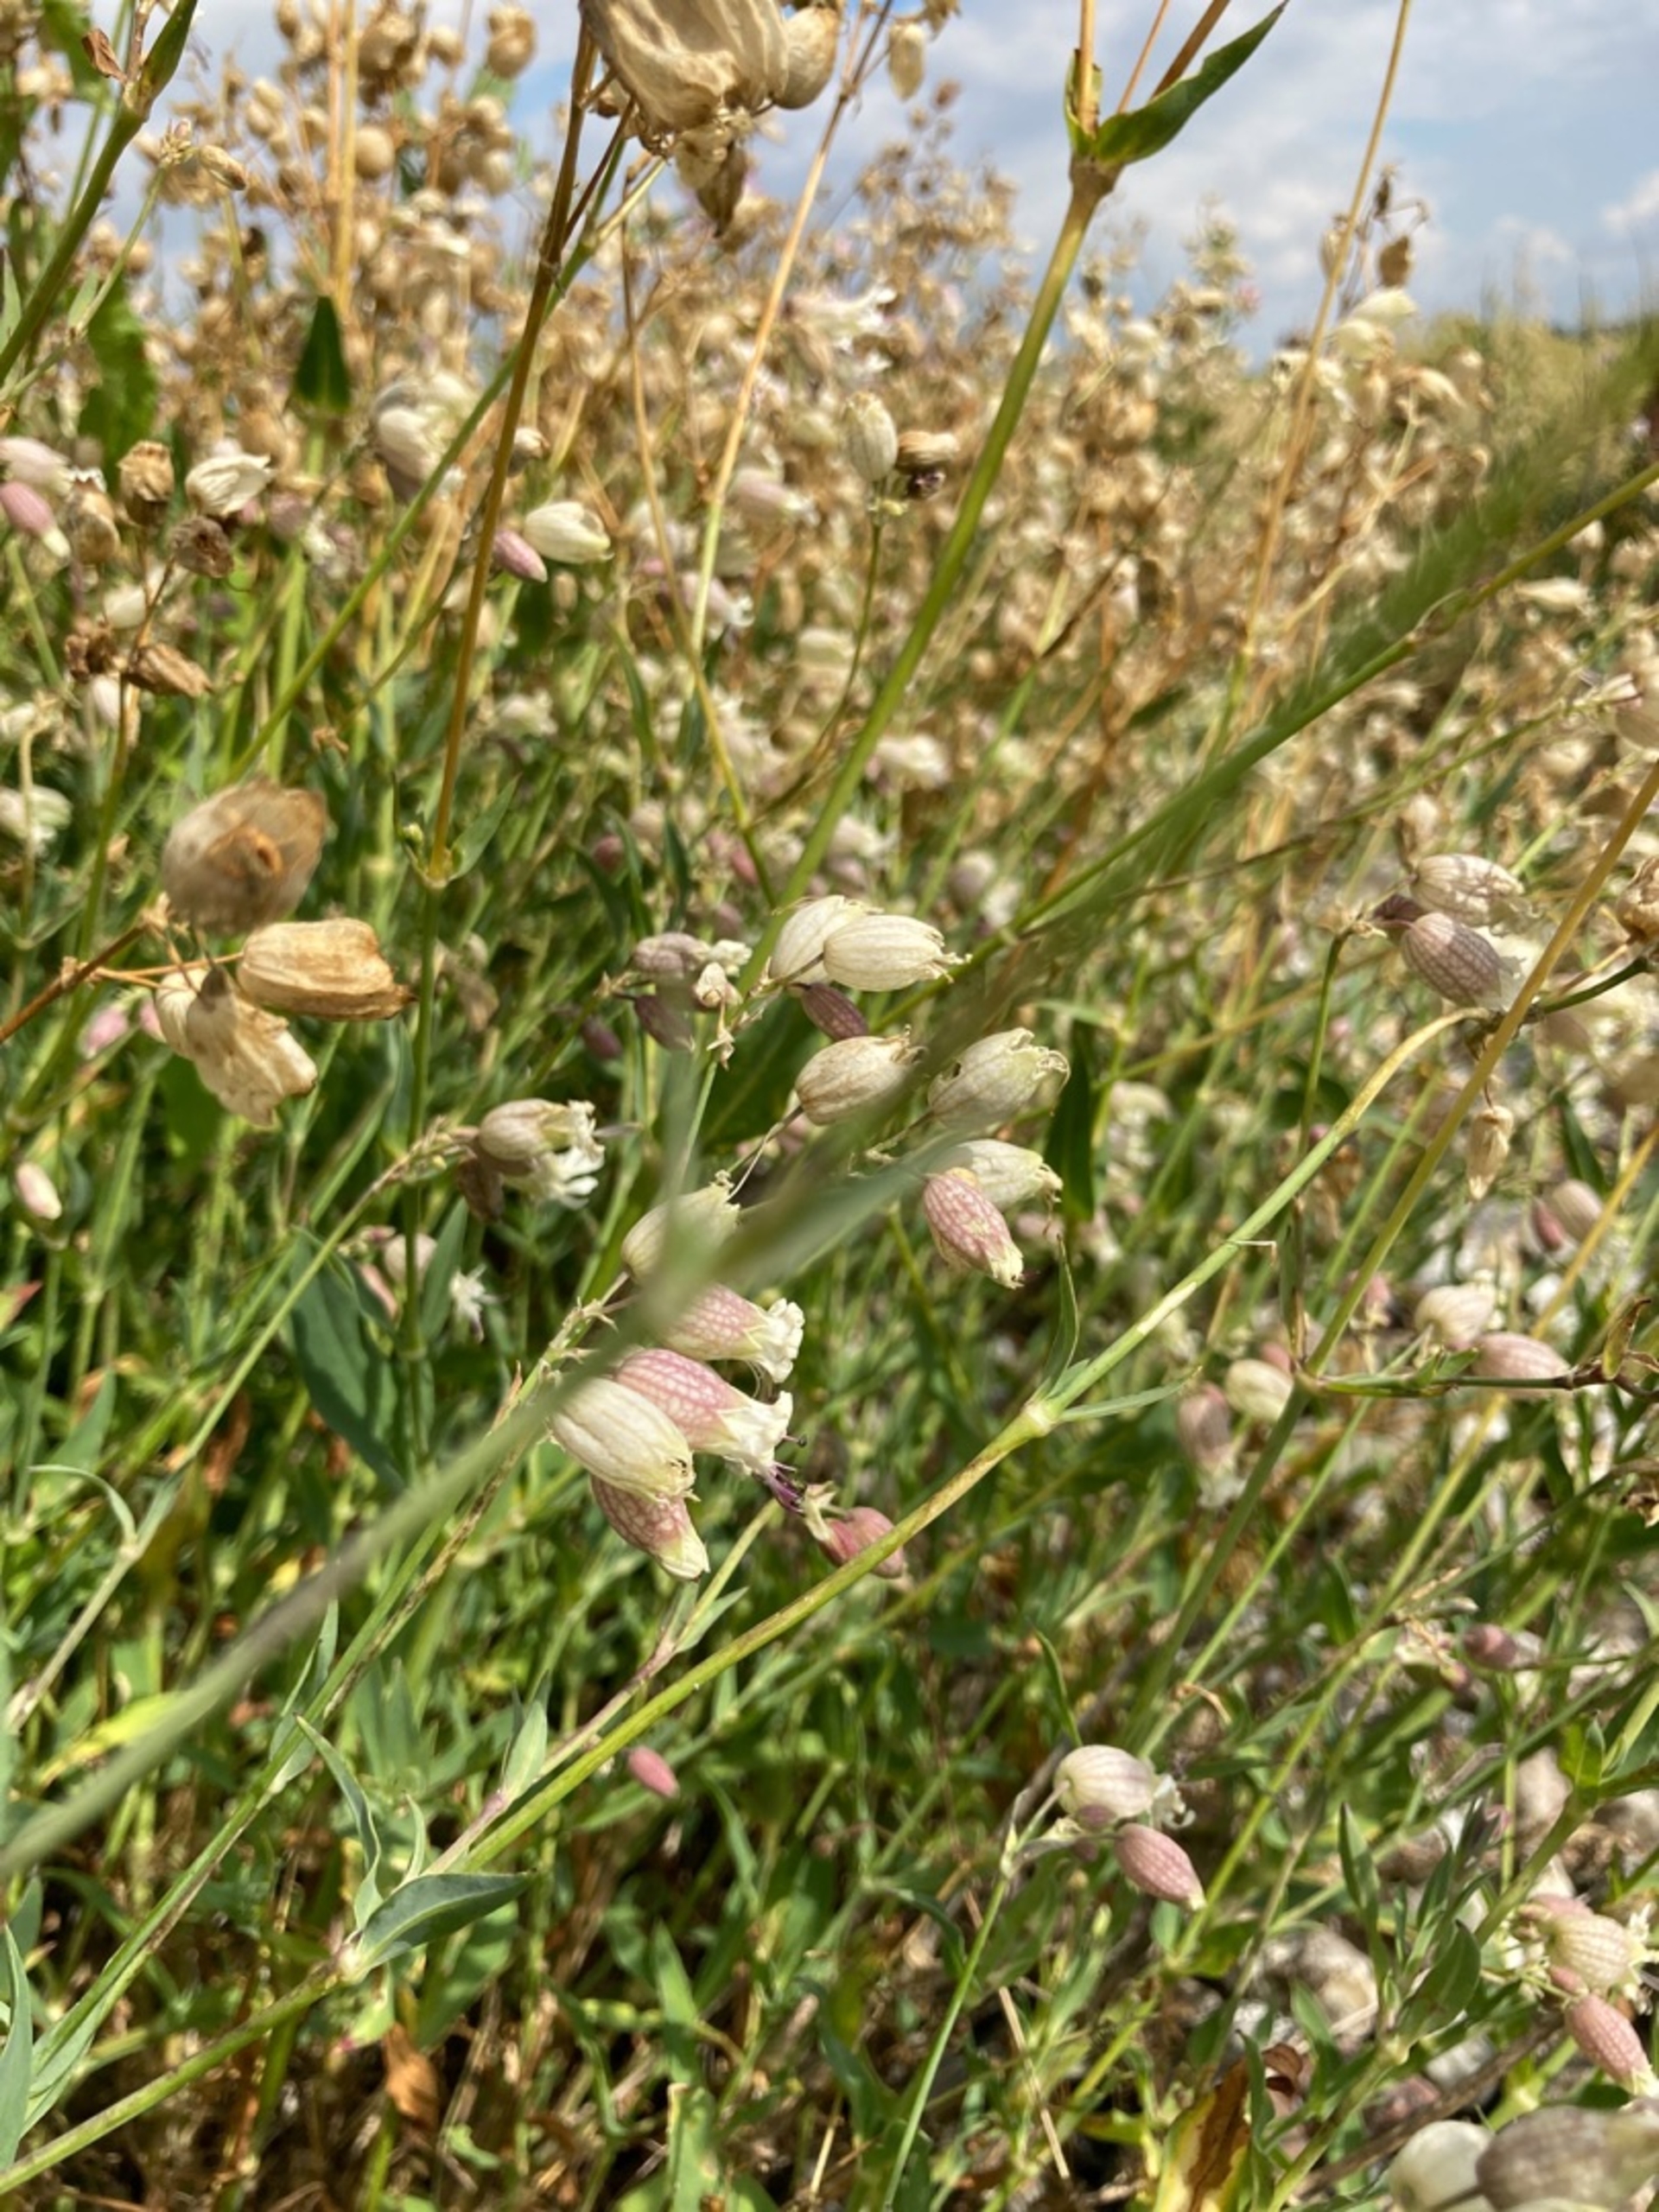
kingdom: Plantae
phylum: Tracheophyta
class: Magnoliopsida
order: Caryophyllales
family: Caryophyllaceae
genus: Silene
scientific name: Silene vulgaris
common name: Blæresmælde
